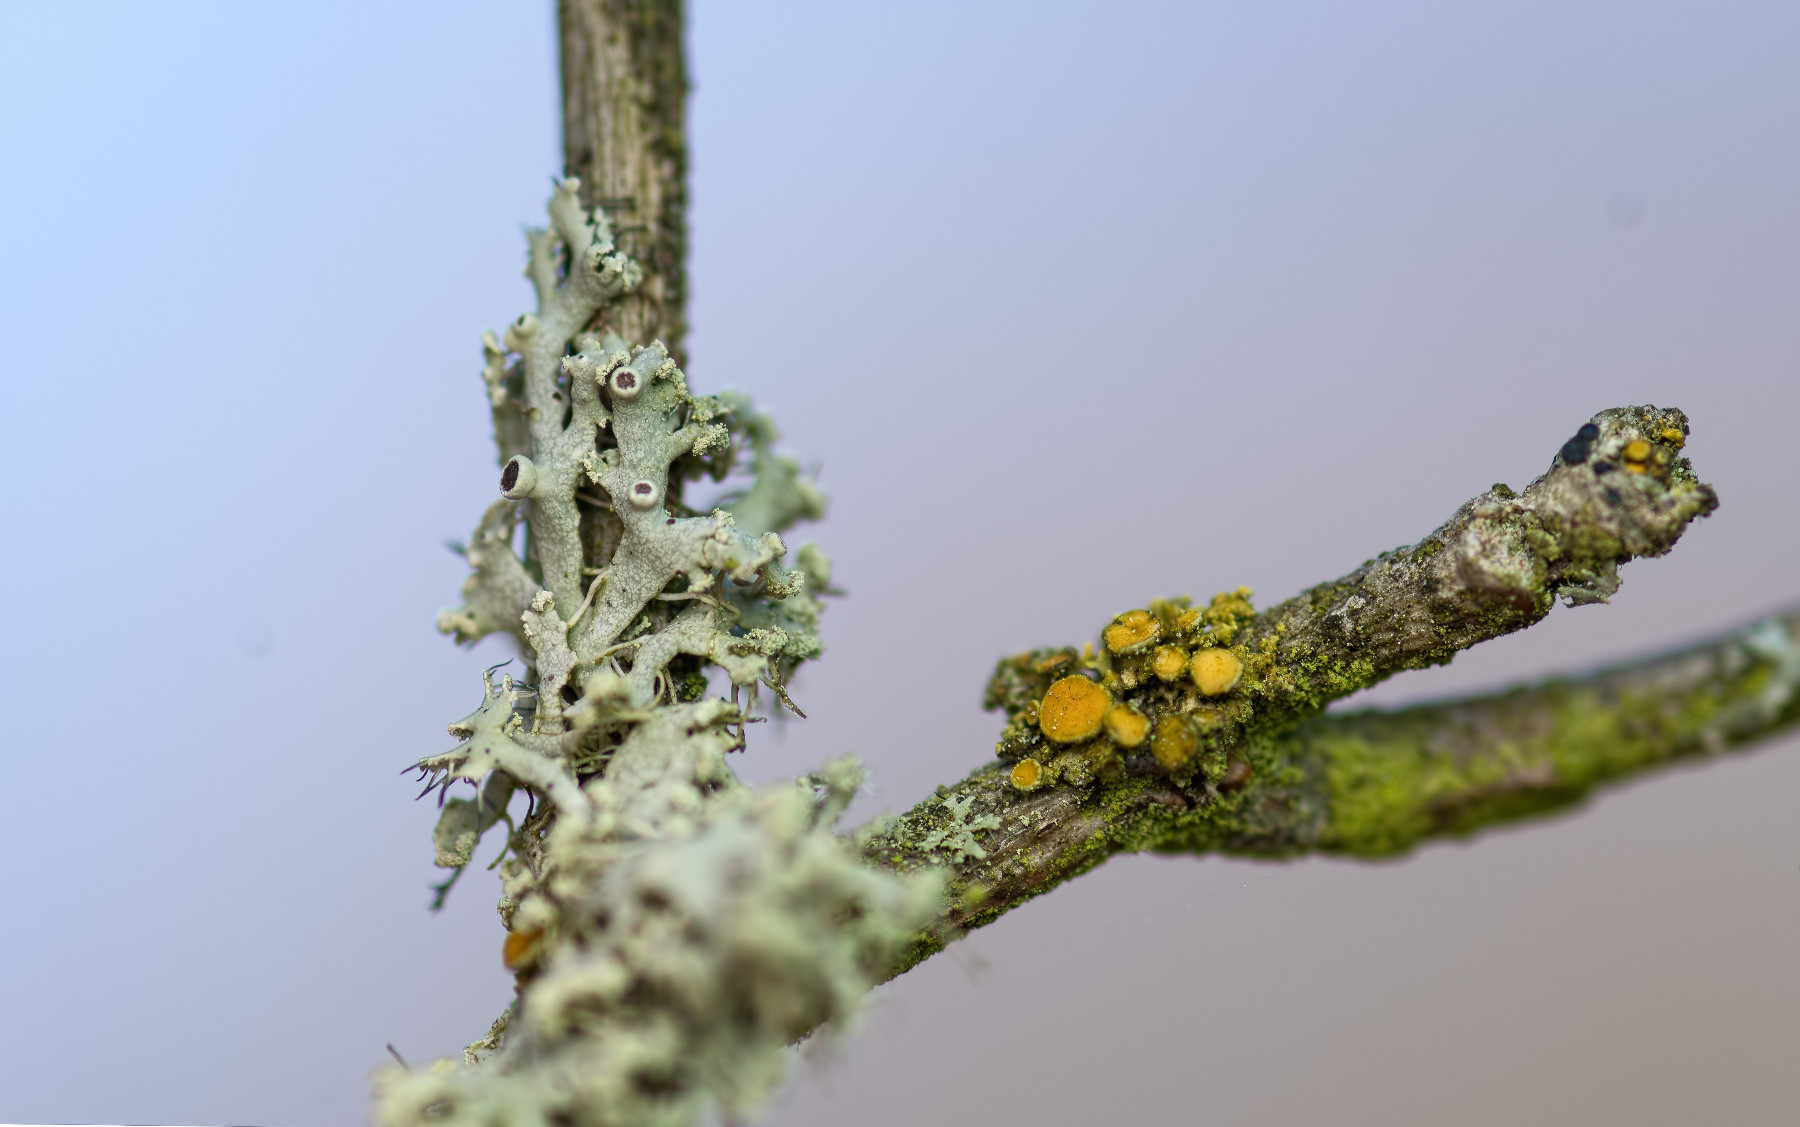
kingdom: Fungi
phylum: Ascomycota
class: Lecanoromycetes
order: Teloschistales
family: Teloschistaceae
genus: Polycauliona
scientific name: Polycauliona polycarpa
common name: mangefrugtet orangelav
